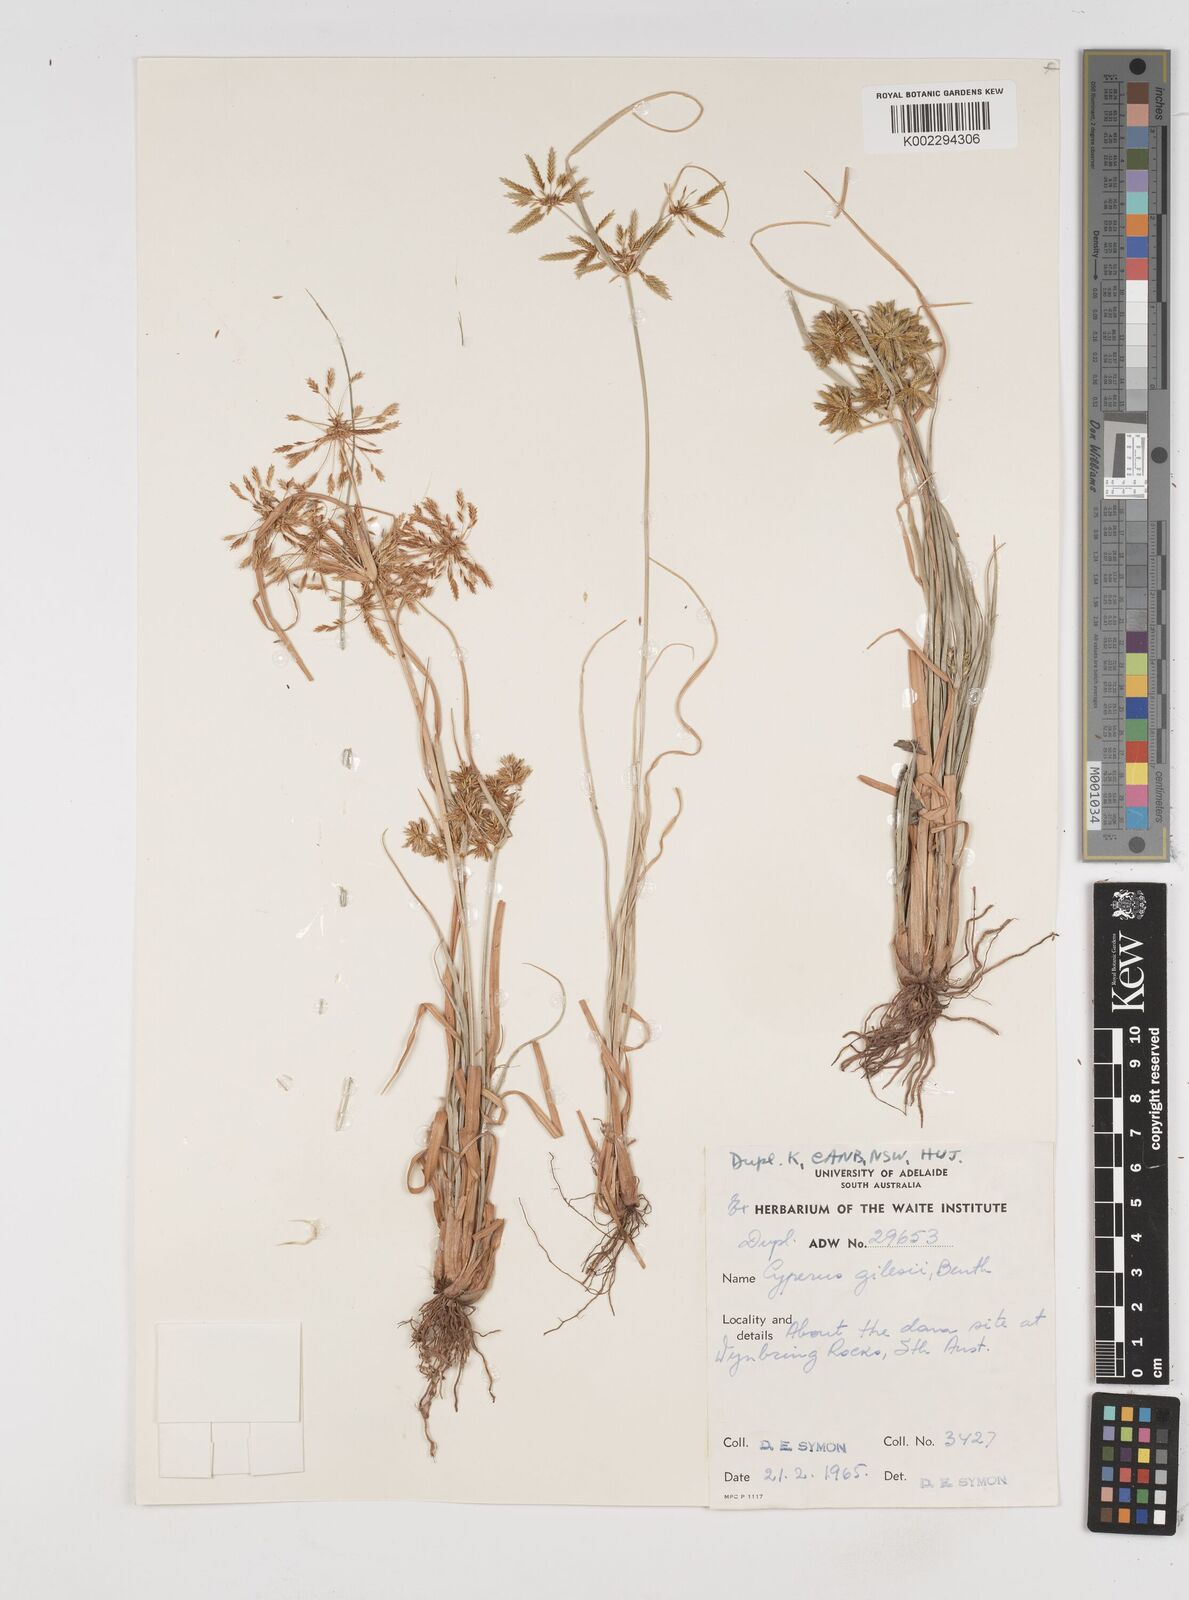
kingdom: Plantae
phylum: Tracheophyta
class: Liliopsida
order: Poales
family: Cyperaceae
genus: Cyperus
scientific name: Cyperus gilesii
